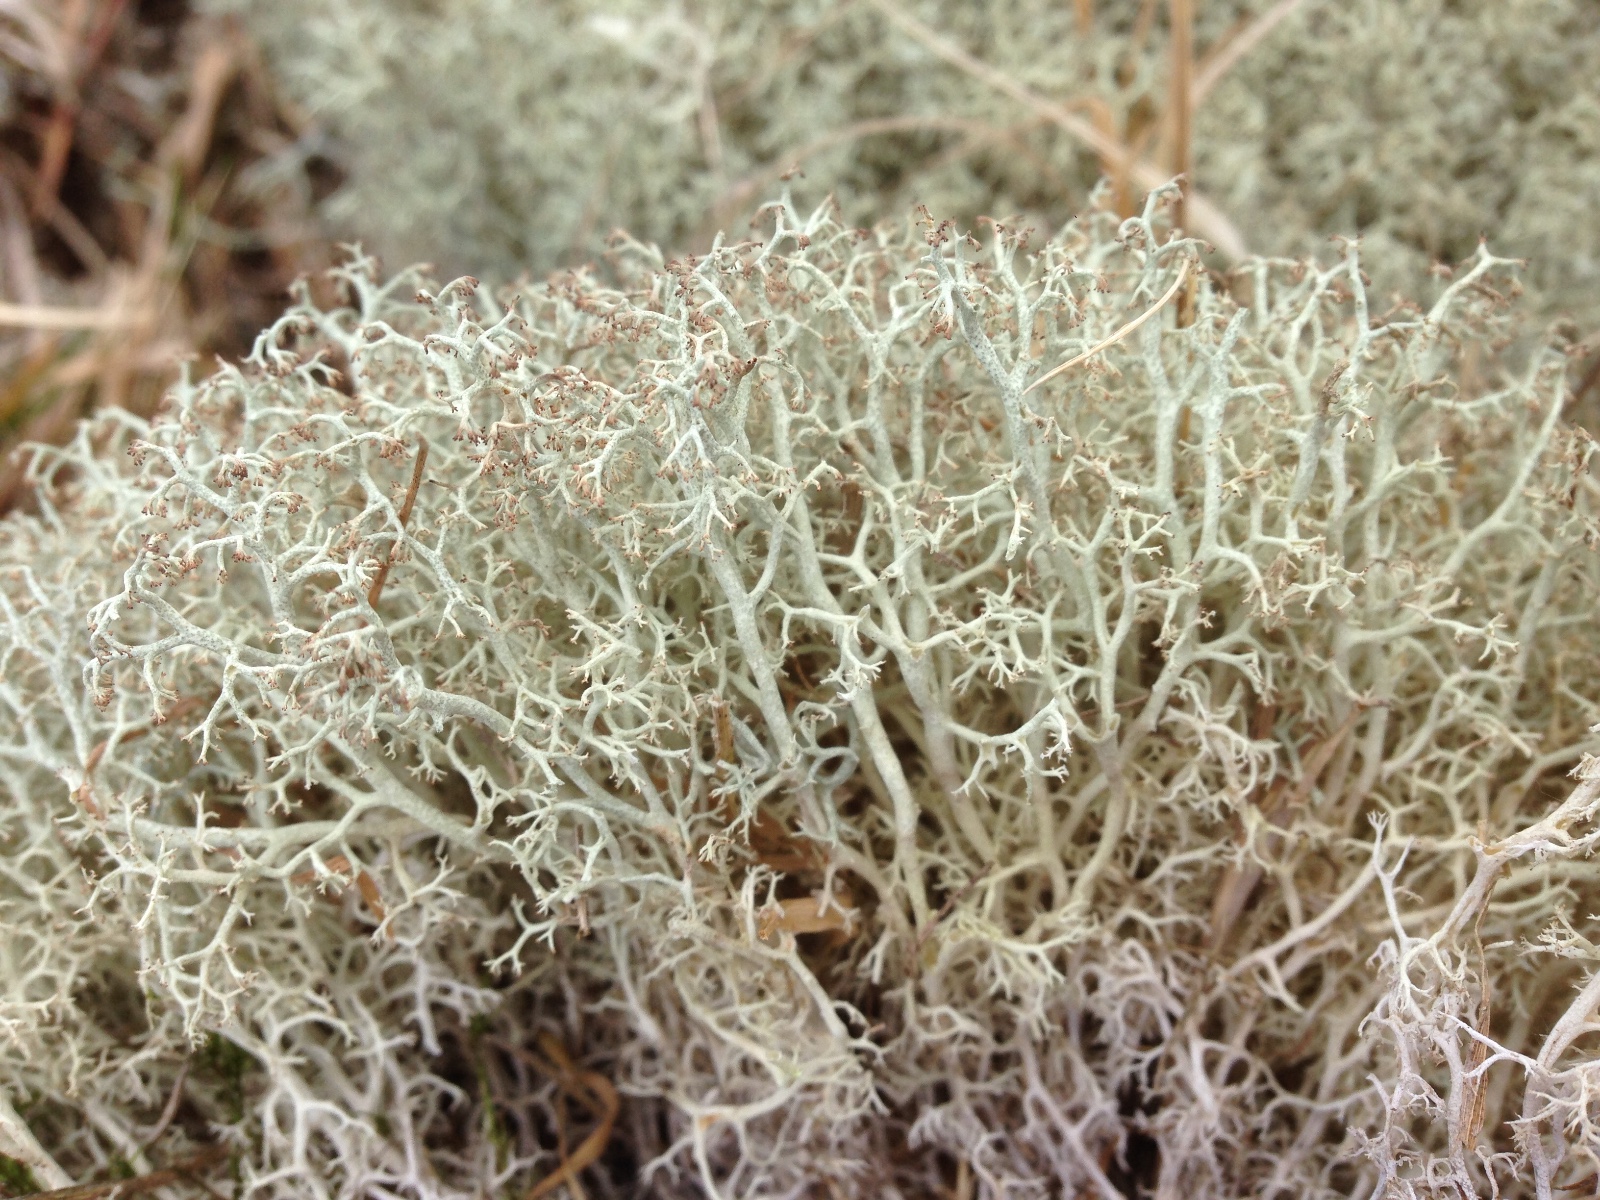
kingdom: Fungi
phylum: Ascomycota
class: Lecanoromycetes
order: Lecanorales
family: Cladoniaceae
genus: Cladonia
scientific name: Cladonia ciliata
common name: spinkel rensdyrlav
